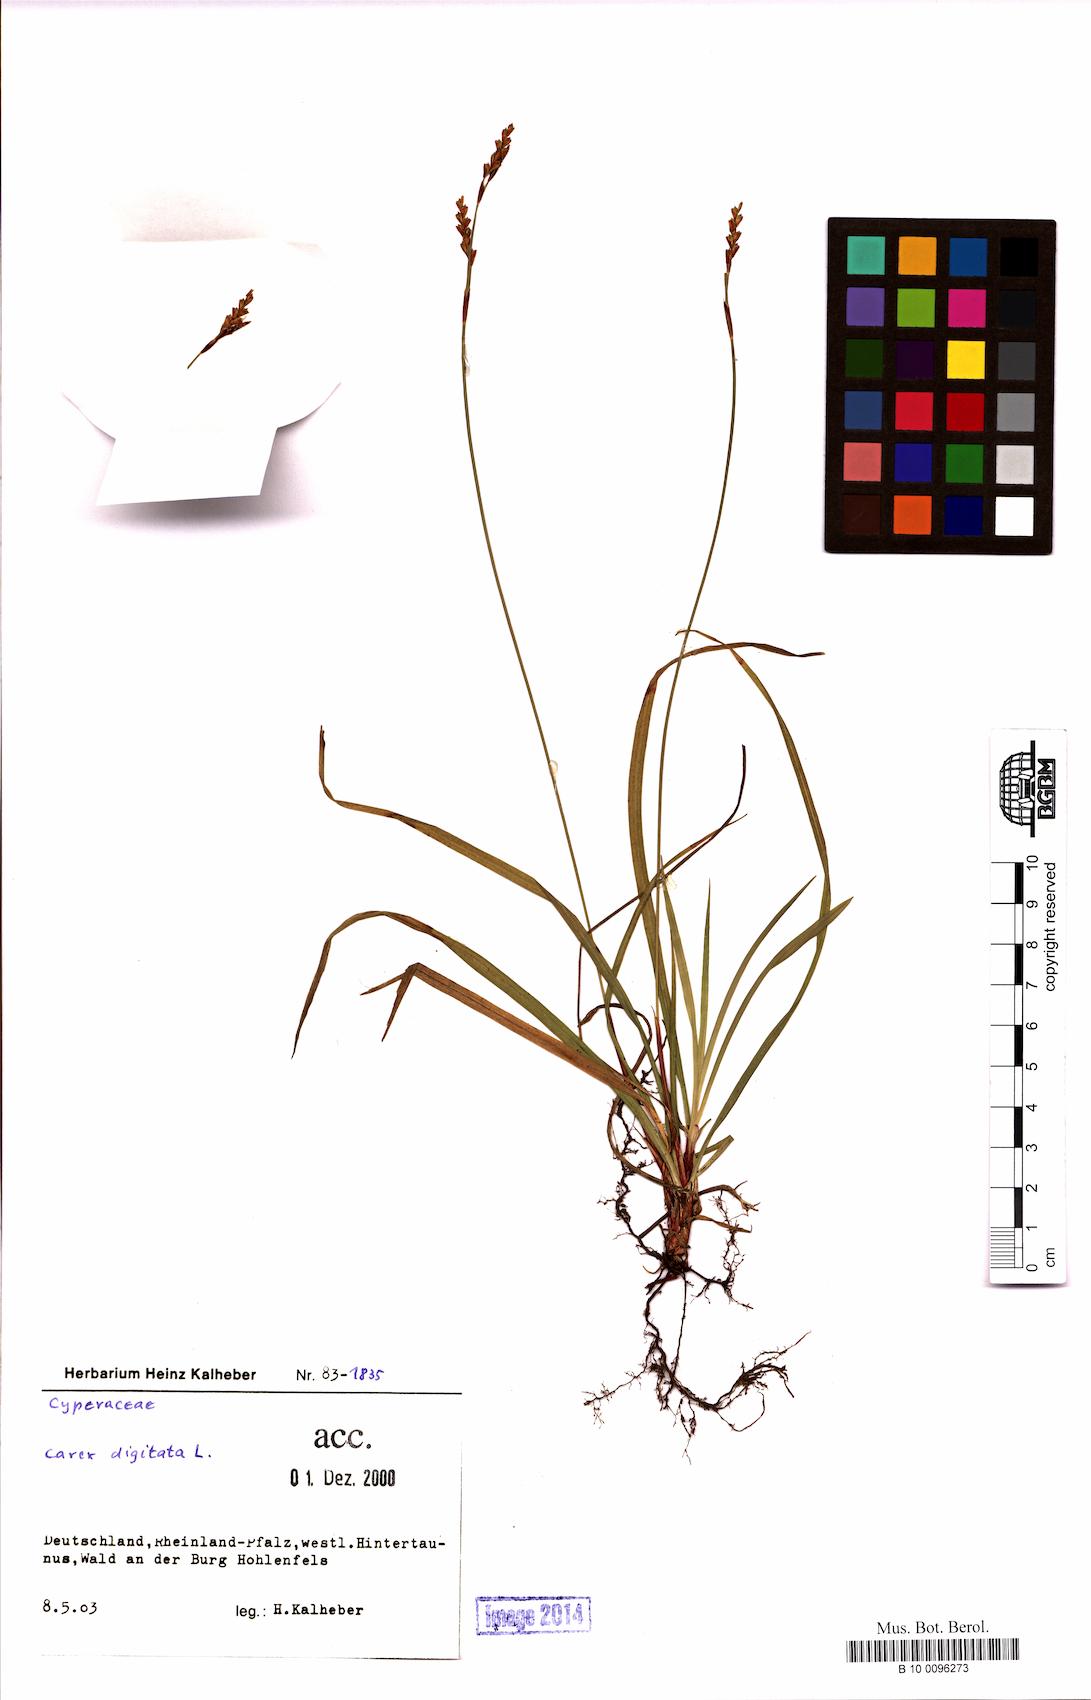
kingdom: Plantae
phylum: Tracheophyta
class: Liliopsida
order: Poales
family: Cyperaceae
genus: Carex
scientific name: Carex digitata
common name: Fingered sedge
